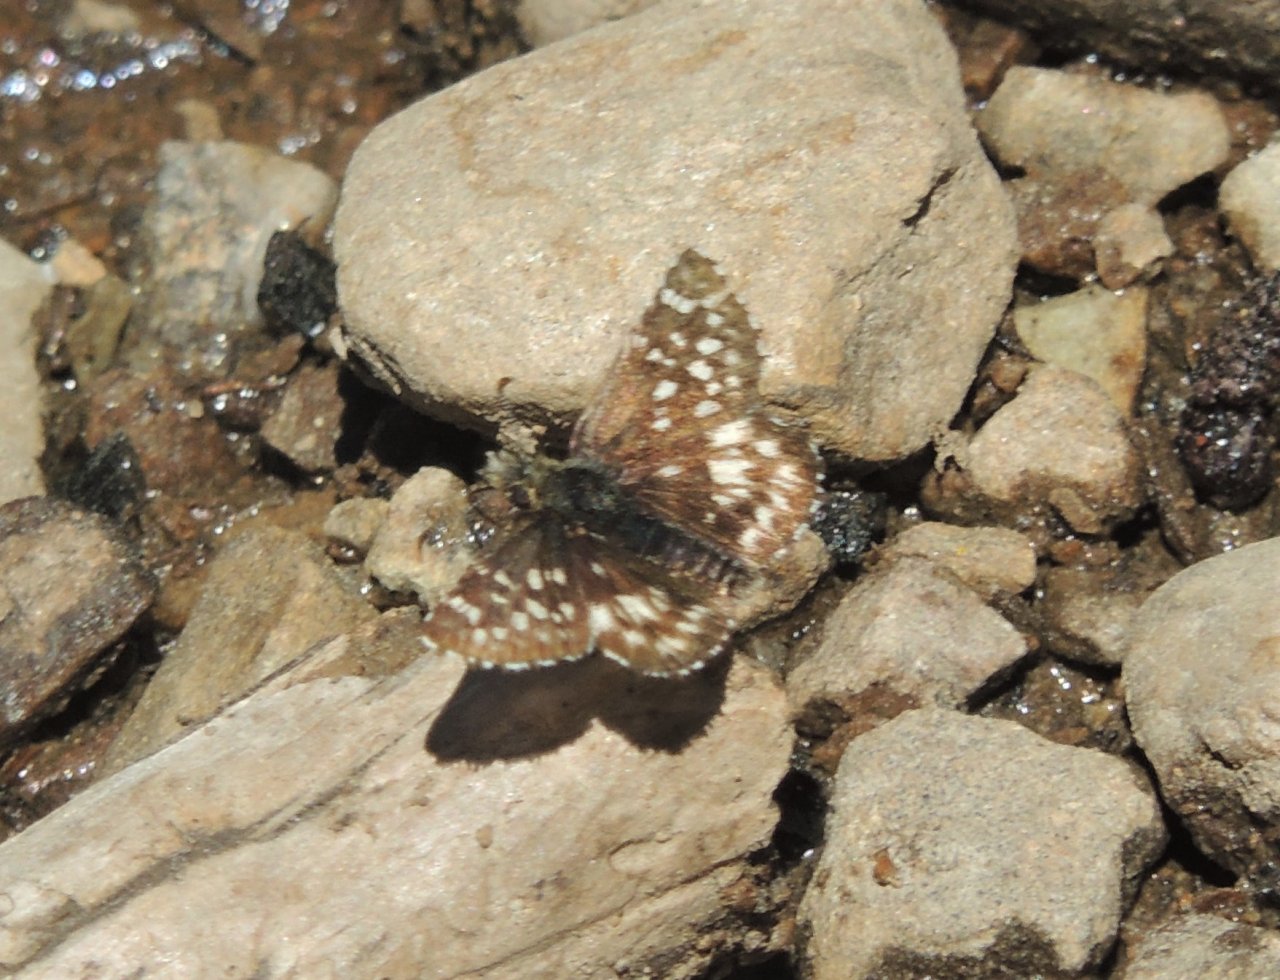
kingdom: Animalia
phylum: Arthropoda
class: Insecta
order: Lepidoptera
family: Hesperiidae
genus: Pyrgus
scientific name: Pyrgus ruralis
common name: Two-banded Checkered-Skipper
